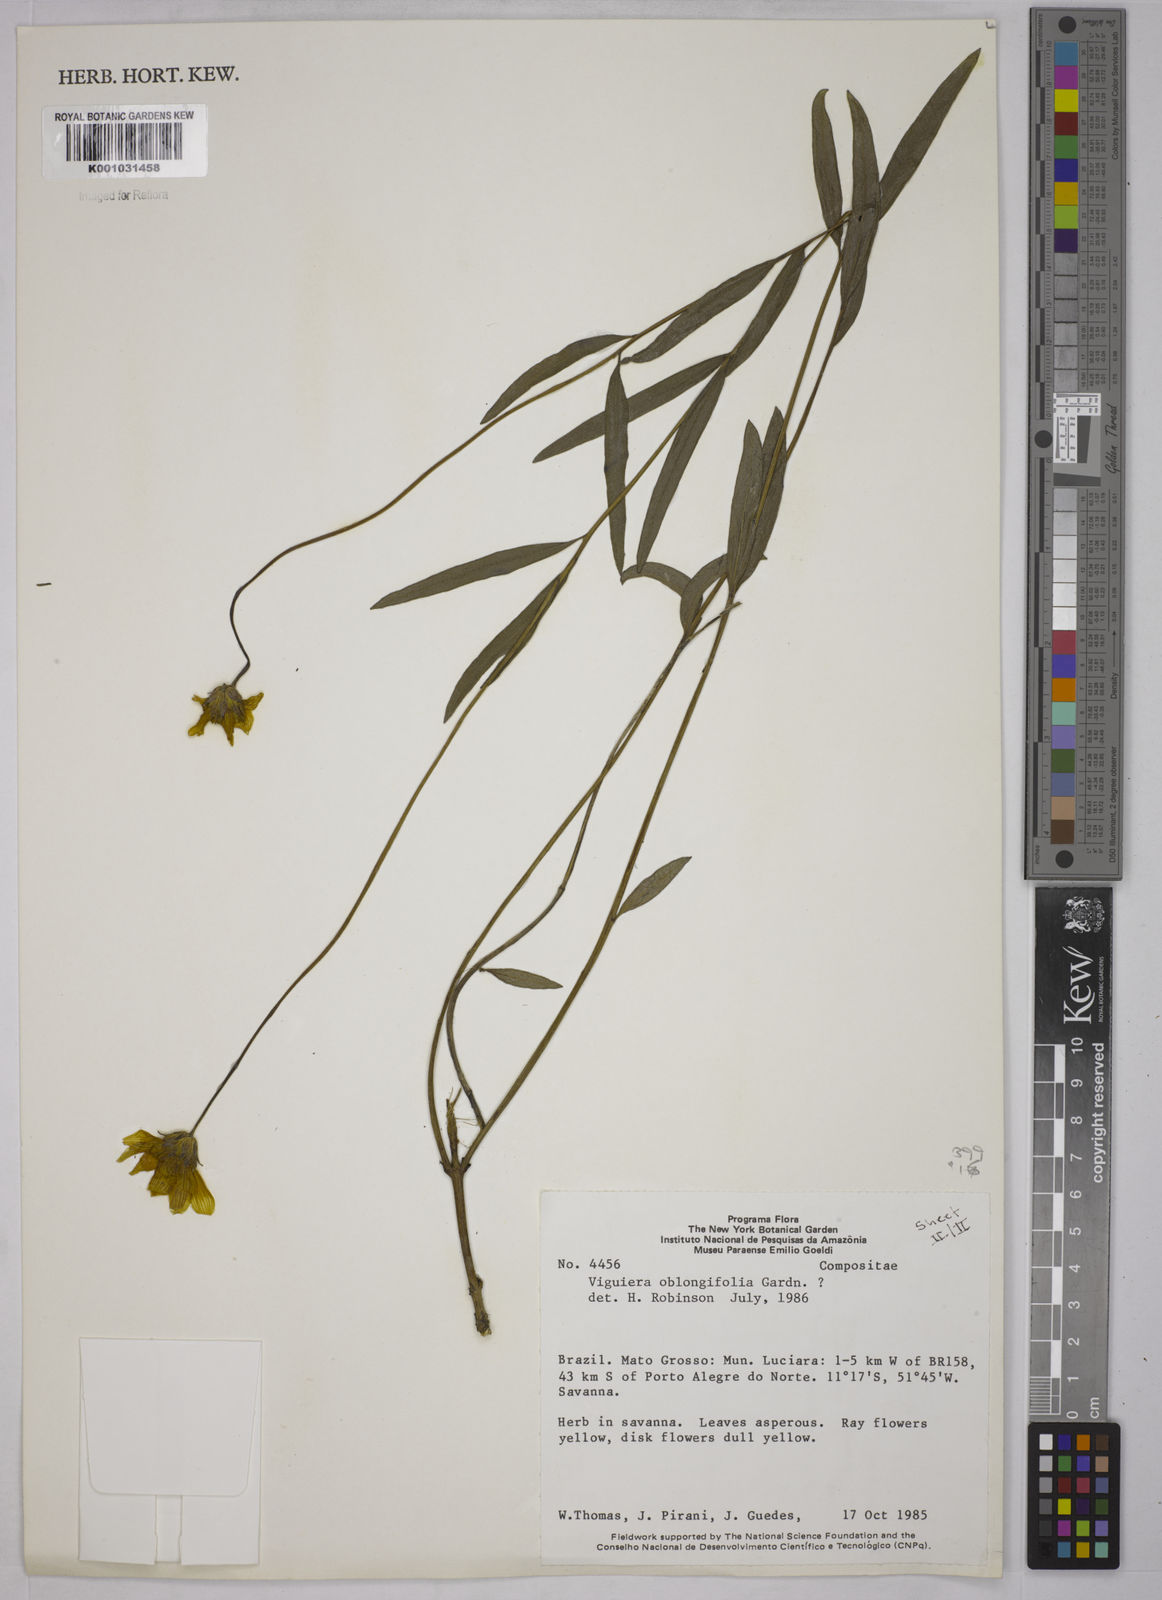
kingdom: Plantae
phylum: Tracheophyta
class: Magnoliopsida
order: Asterales
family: Asteraceae
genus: Aldama
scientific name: Aldama oblongifolia
